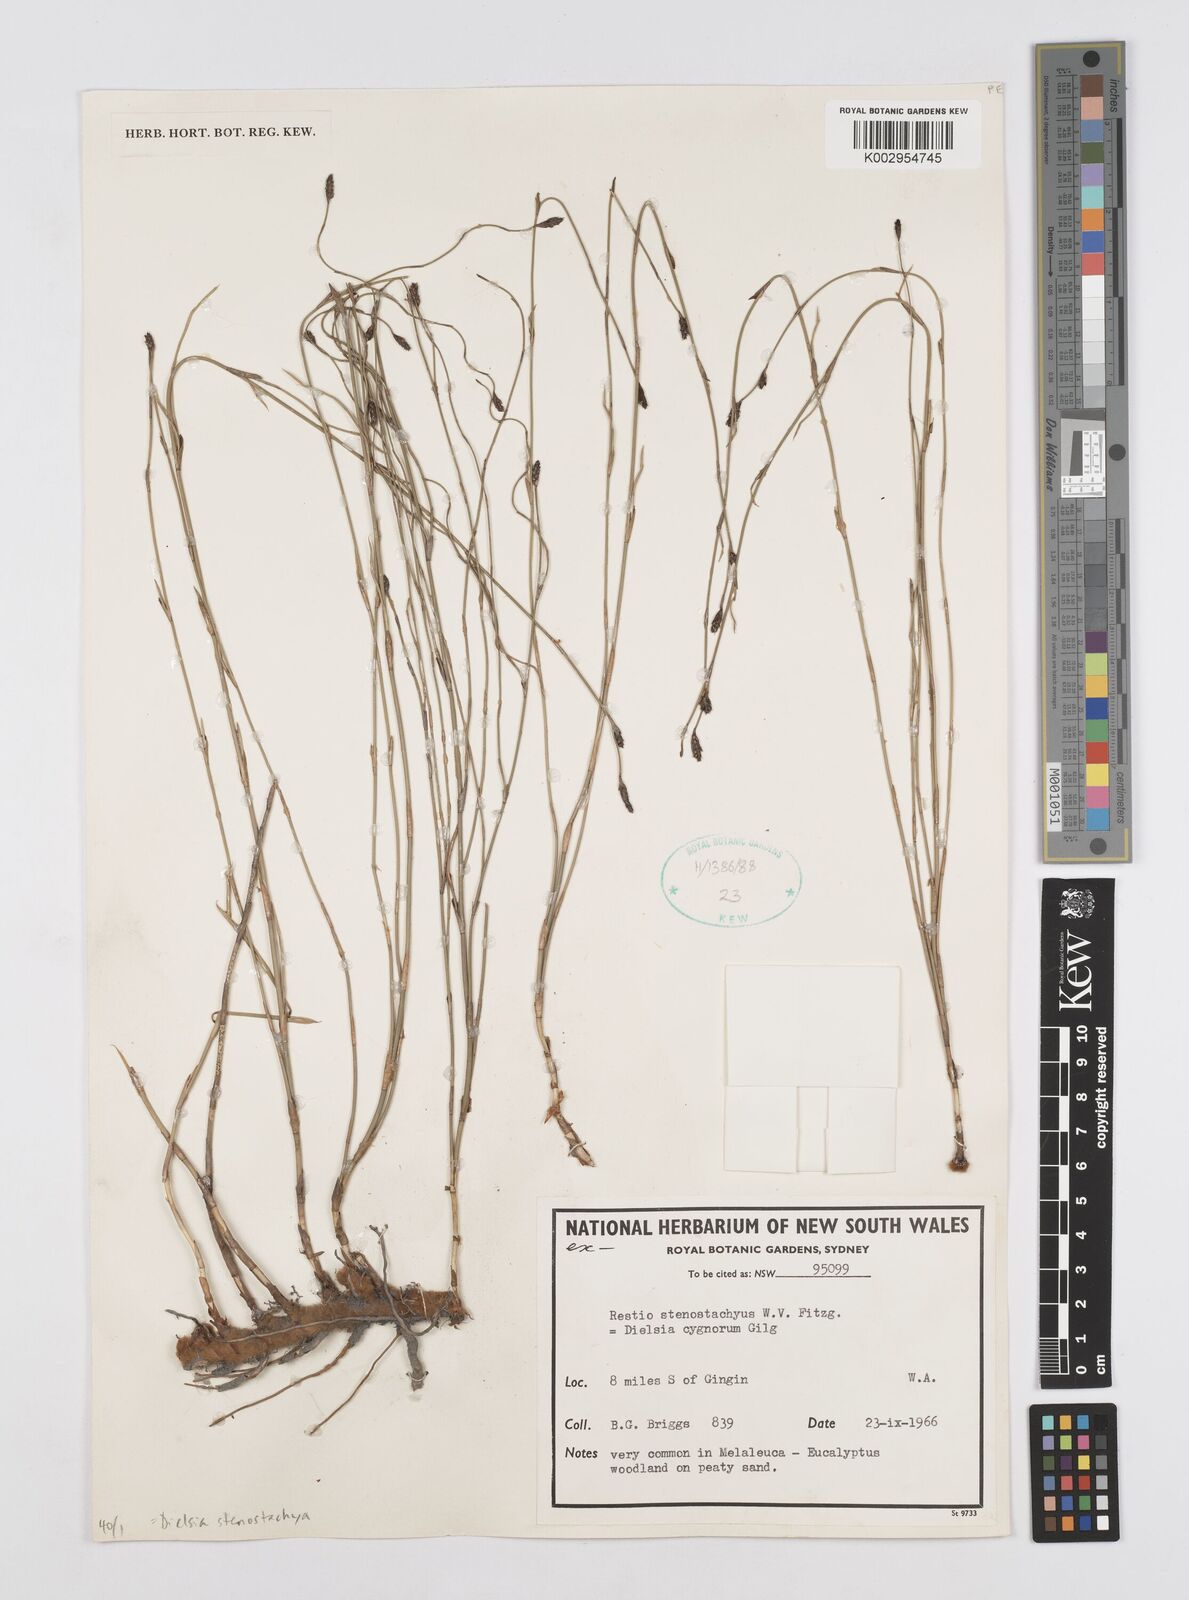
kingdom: Plantae
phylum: Tracheophyta
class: Liliopsida
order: Poales
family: Restionaceae
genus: Dielsia
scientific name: Dielsia stenostachya
